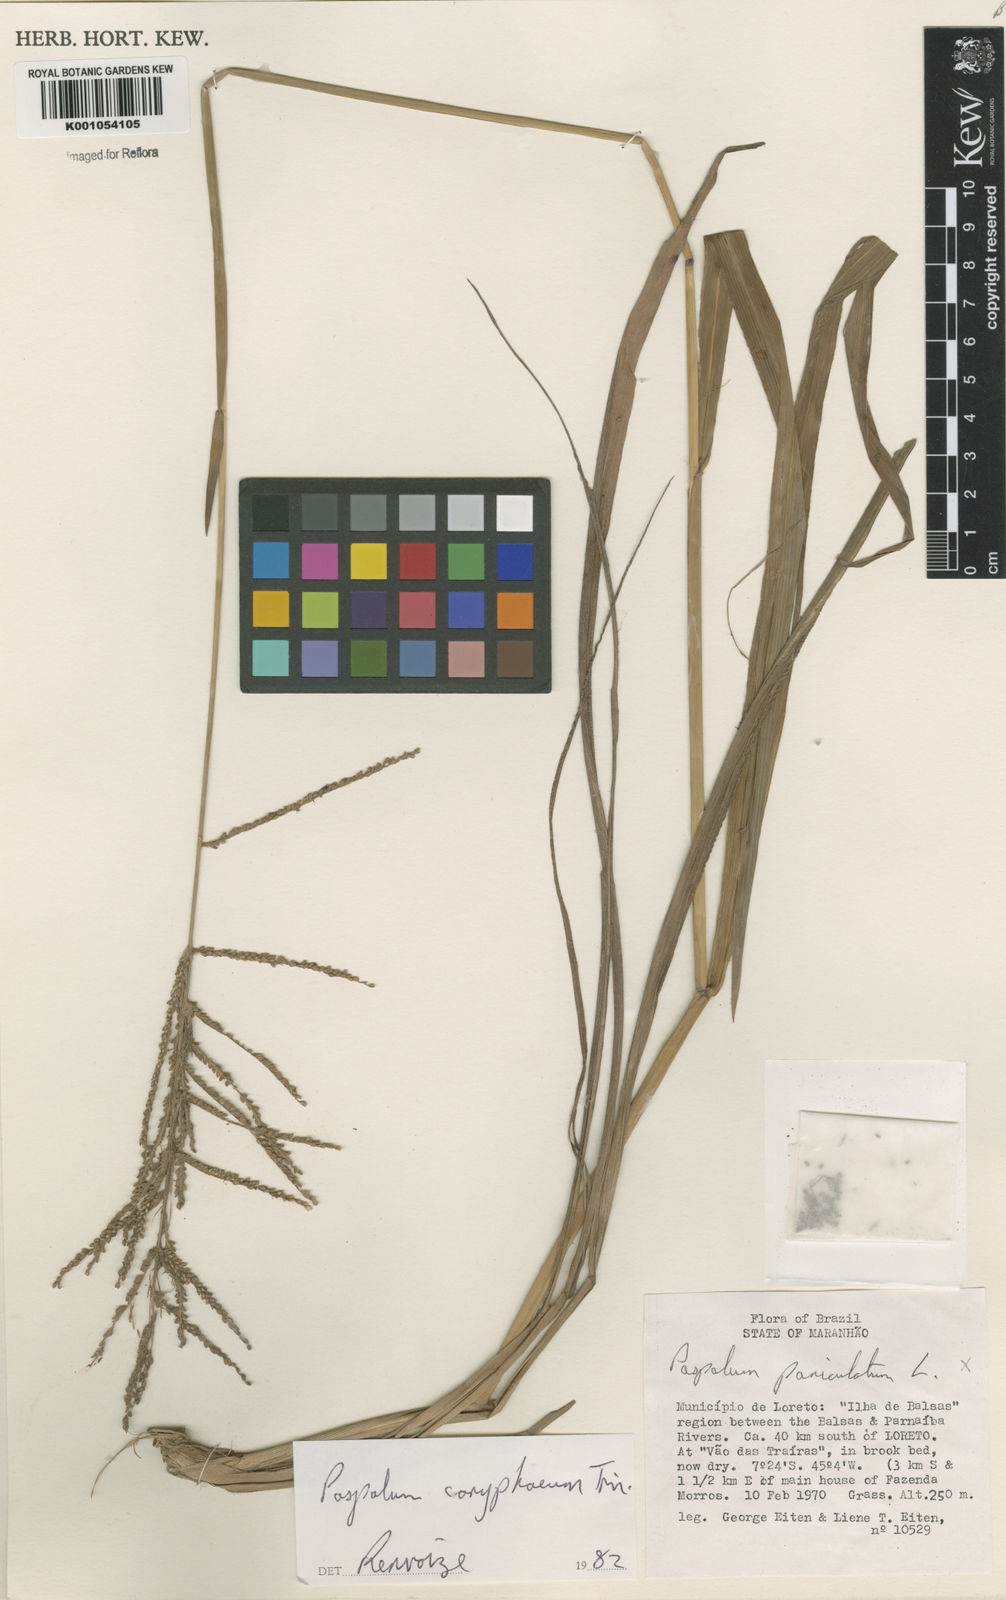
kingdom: Plantae
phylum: Tracheophyta
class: Liliopsida
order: Poales
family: Poaceae
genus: Paspalum
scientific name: Paspalum coryphaeum
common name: Emperor crowngrass
